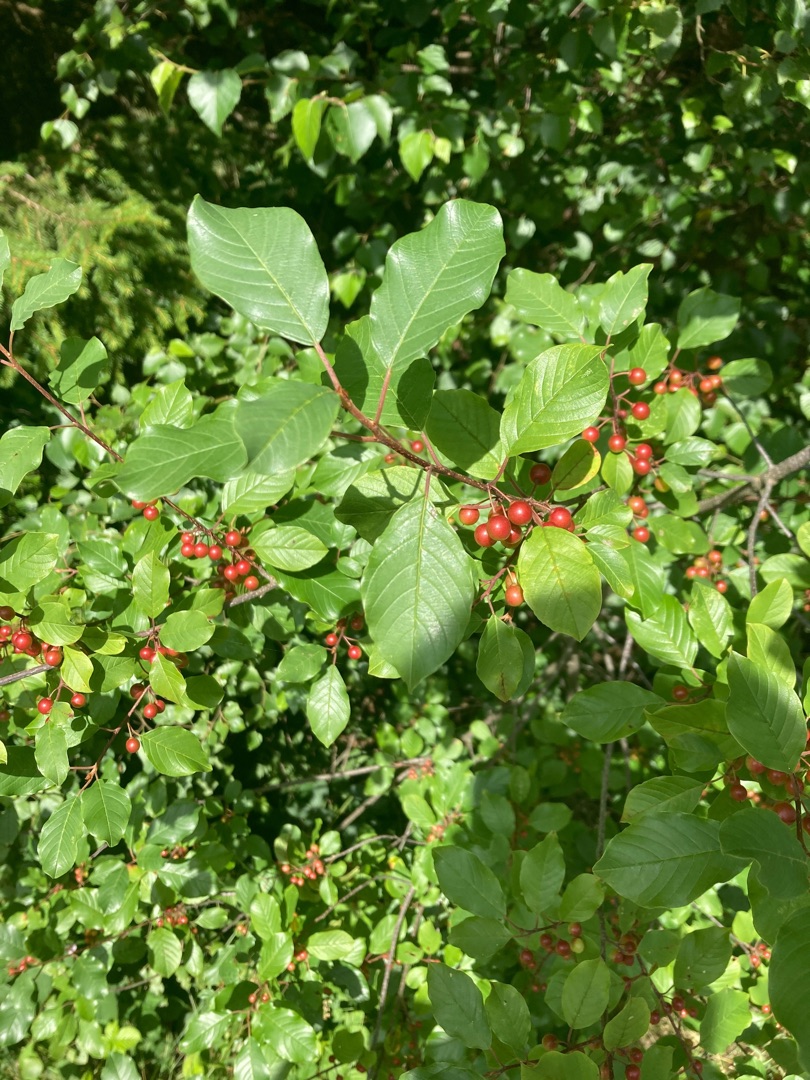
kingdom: Plantae
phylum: Tracheophyta
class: Magnoliopsida
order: Rosales
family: Rhamnaceae
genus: Frangula
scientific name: Frangula alnus
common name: Tørst
